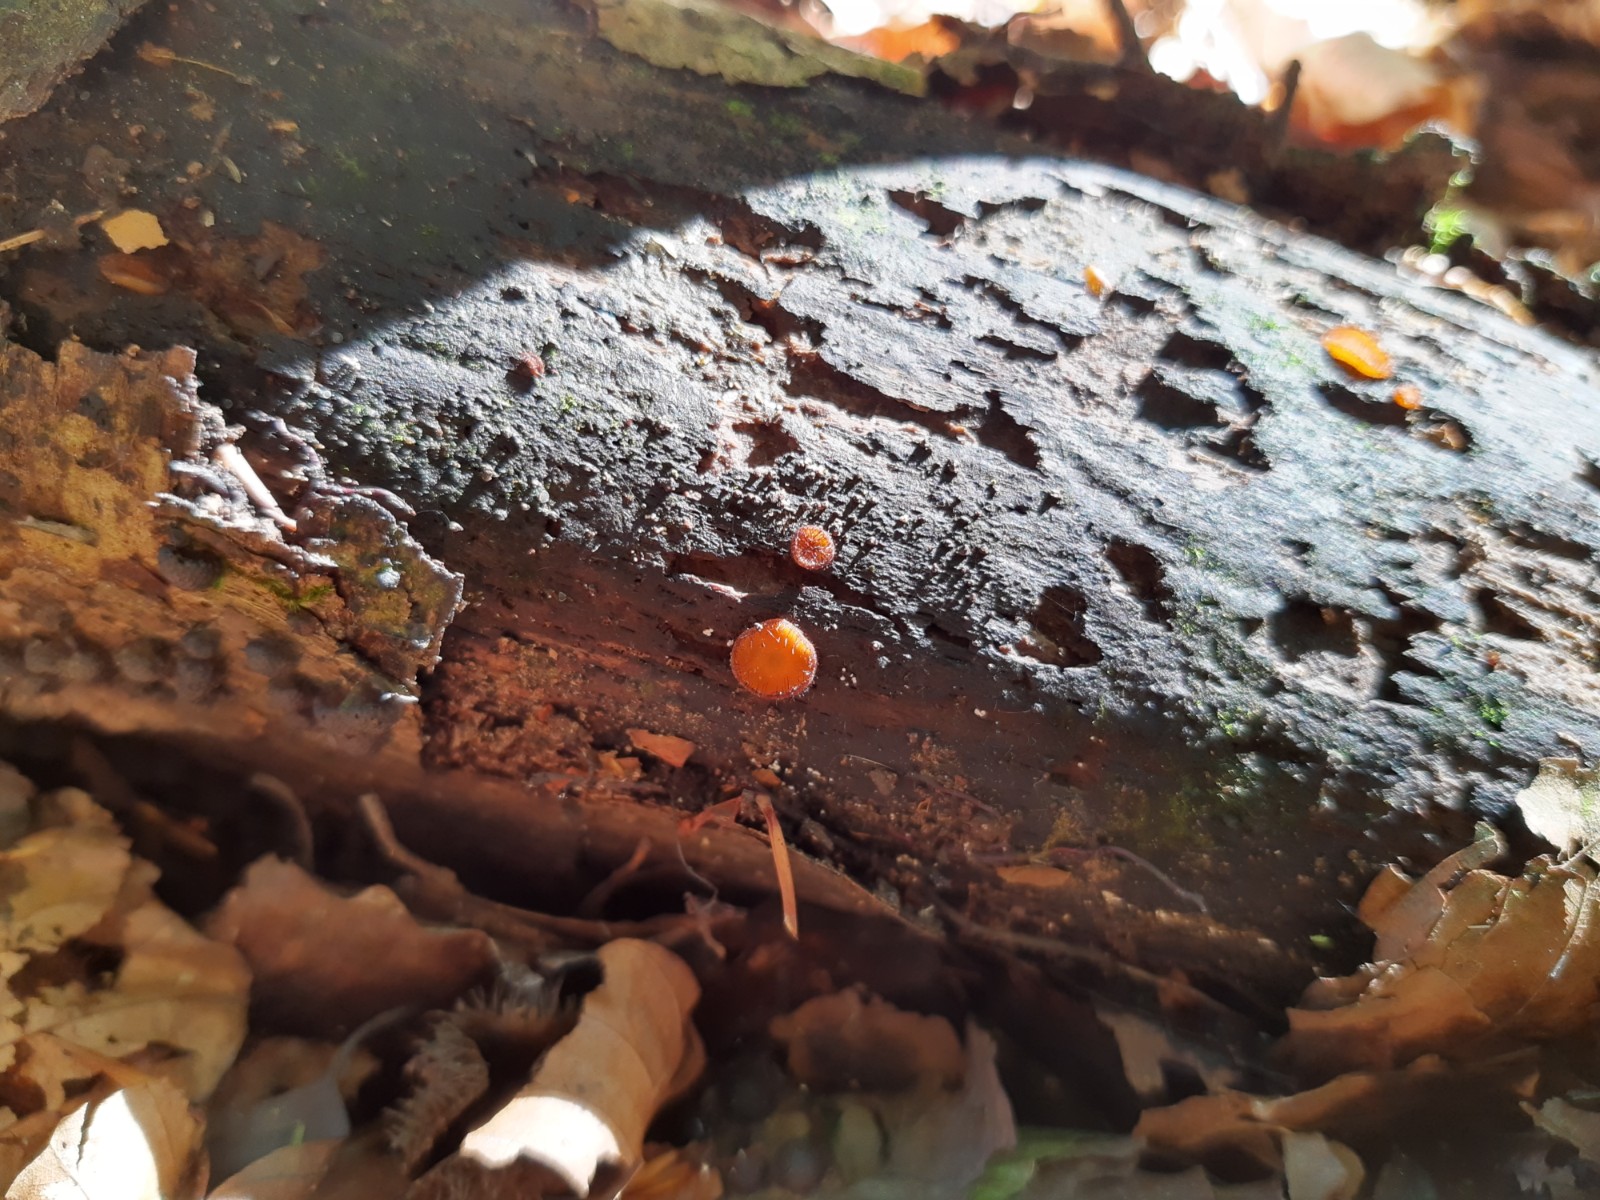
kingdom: Fungi
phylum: Ascomycota
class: Pezizomycetes
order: Pezizales
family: Pyronemataceae
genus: Scutellinia
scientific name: Scutellinia
